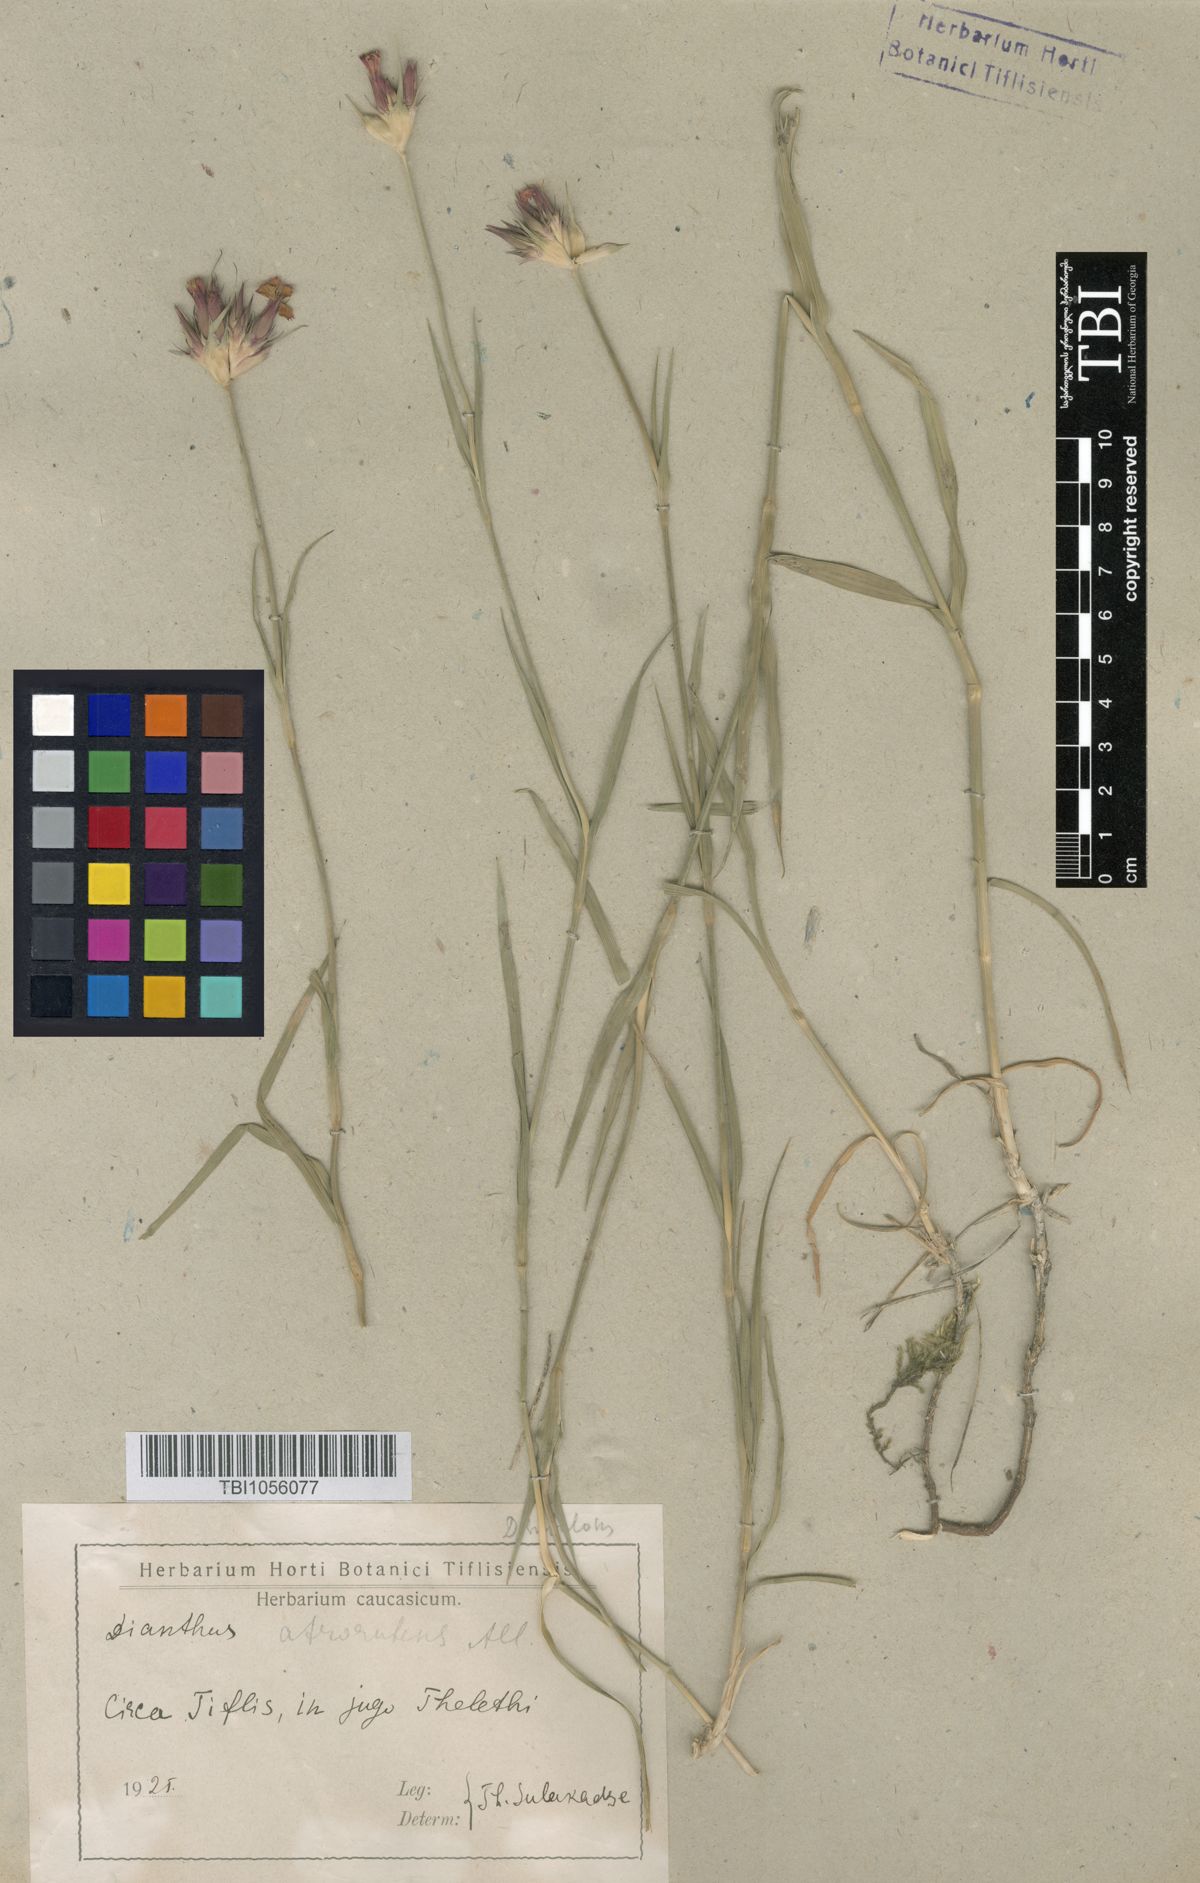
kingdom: Plantae
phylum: Tracheophyta
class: Magnoliopsida
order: Caryophyllales
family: Caryophyllaceae
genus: Dianthus
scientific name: Dianthus subulosus
